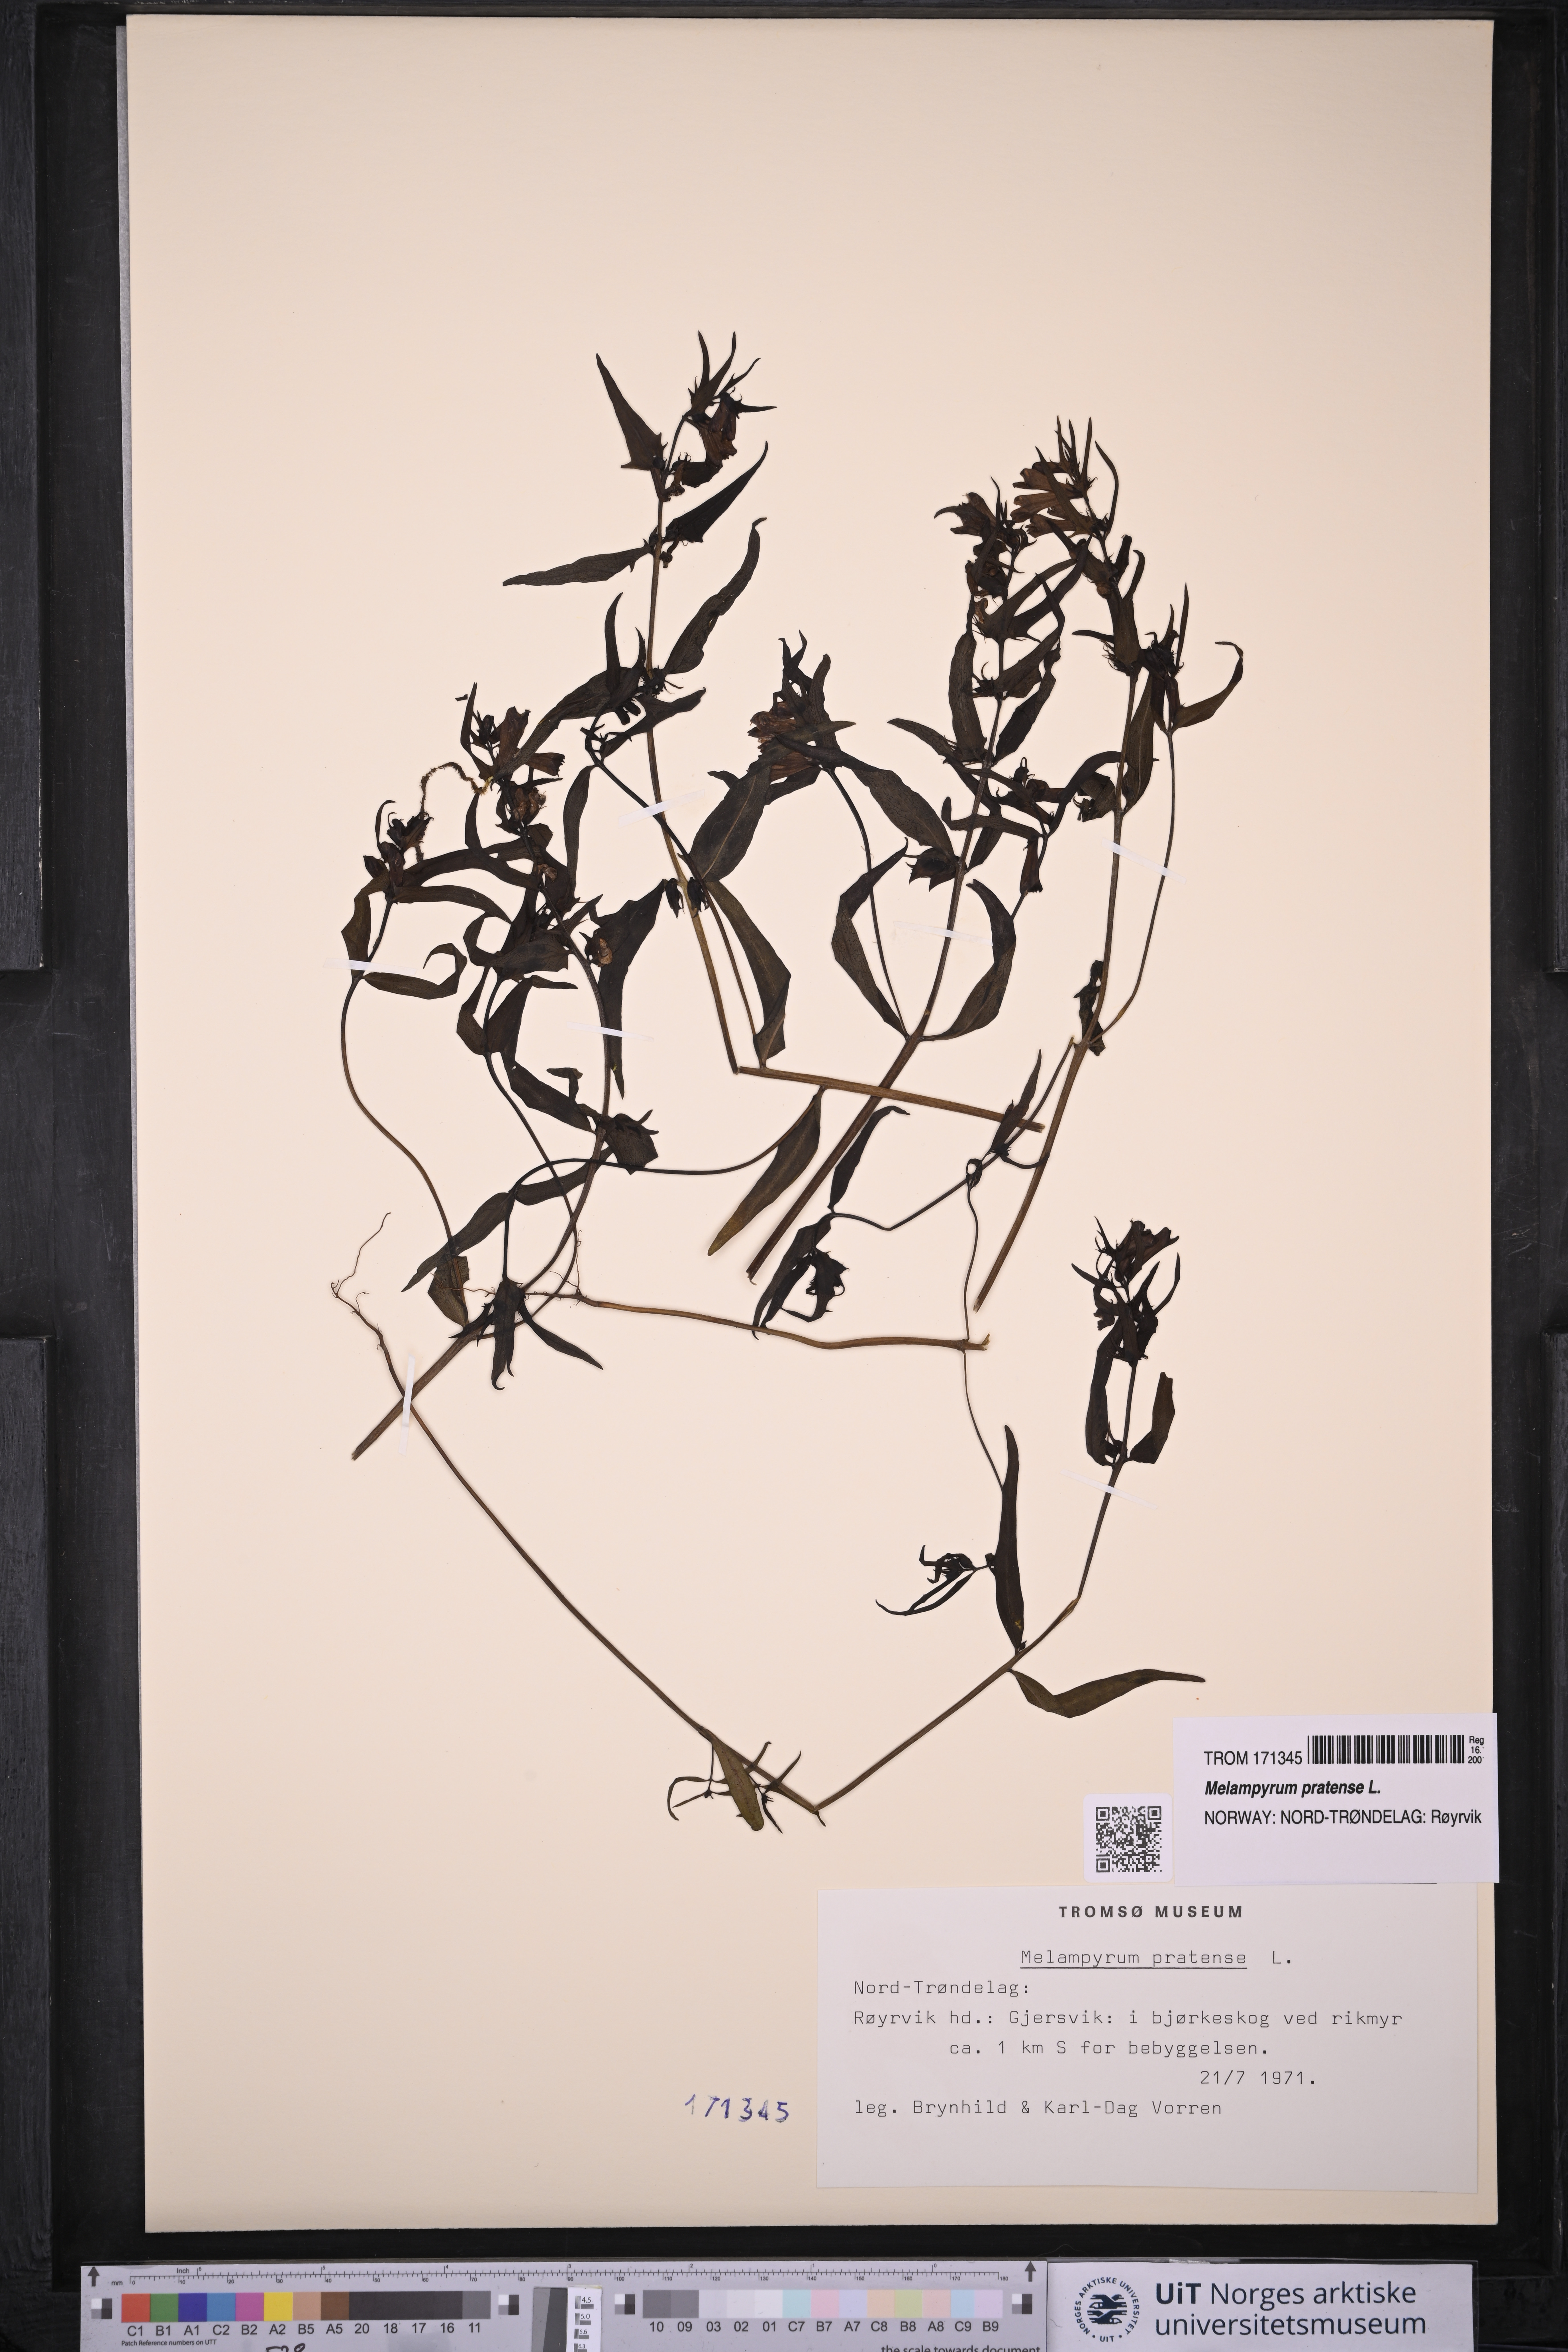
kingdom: Plantae
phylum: Tracheophyta
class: Magnoliopsida
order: Lamiales
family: Orobanchaceae
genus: Melampyrum
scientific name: Melampyrum pratense
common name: Common cow-wheat
